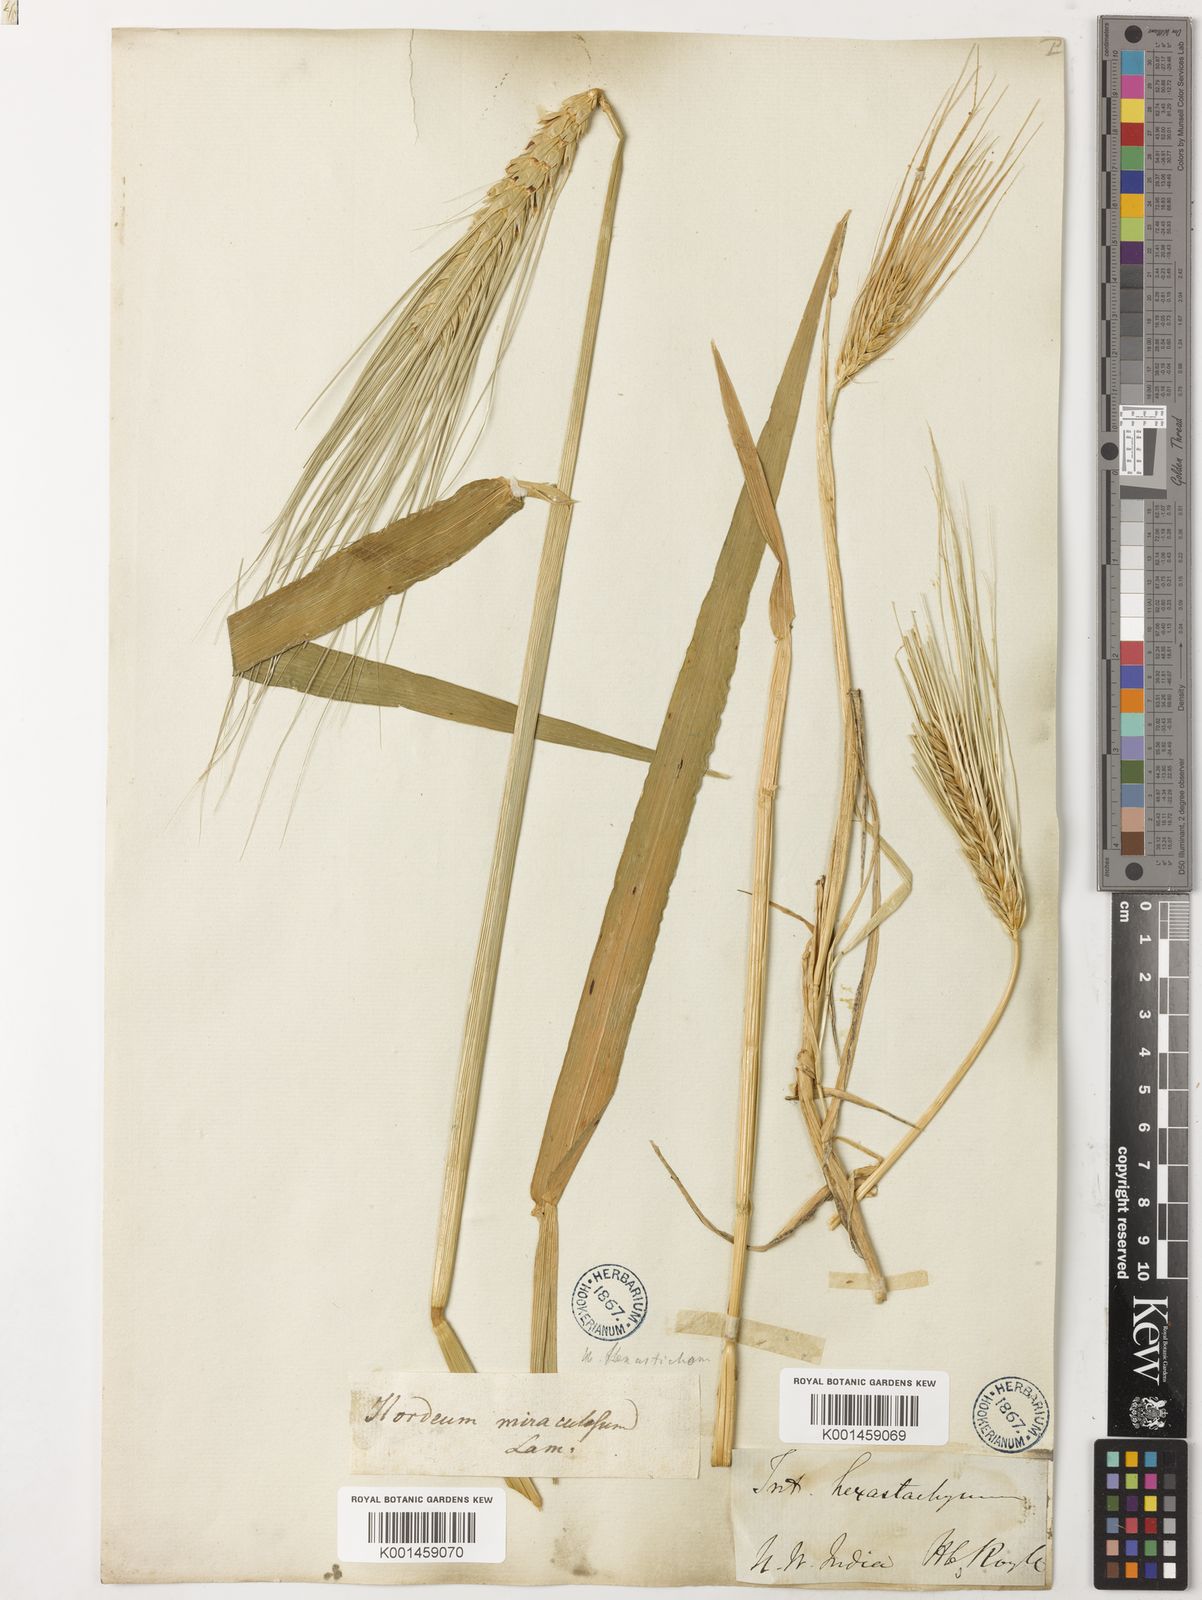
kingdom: Plantae
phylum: Tracheophyta
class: Liliopsida
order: Poales
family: Poaceae
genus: Hordeum
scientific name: Hordeum vulgare
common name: Common barley
